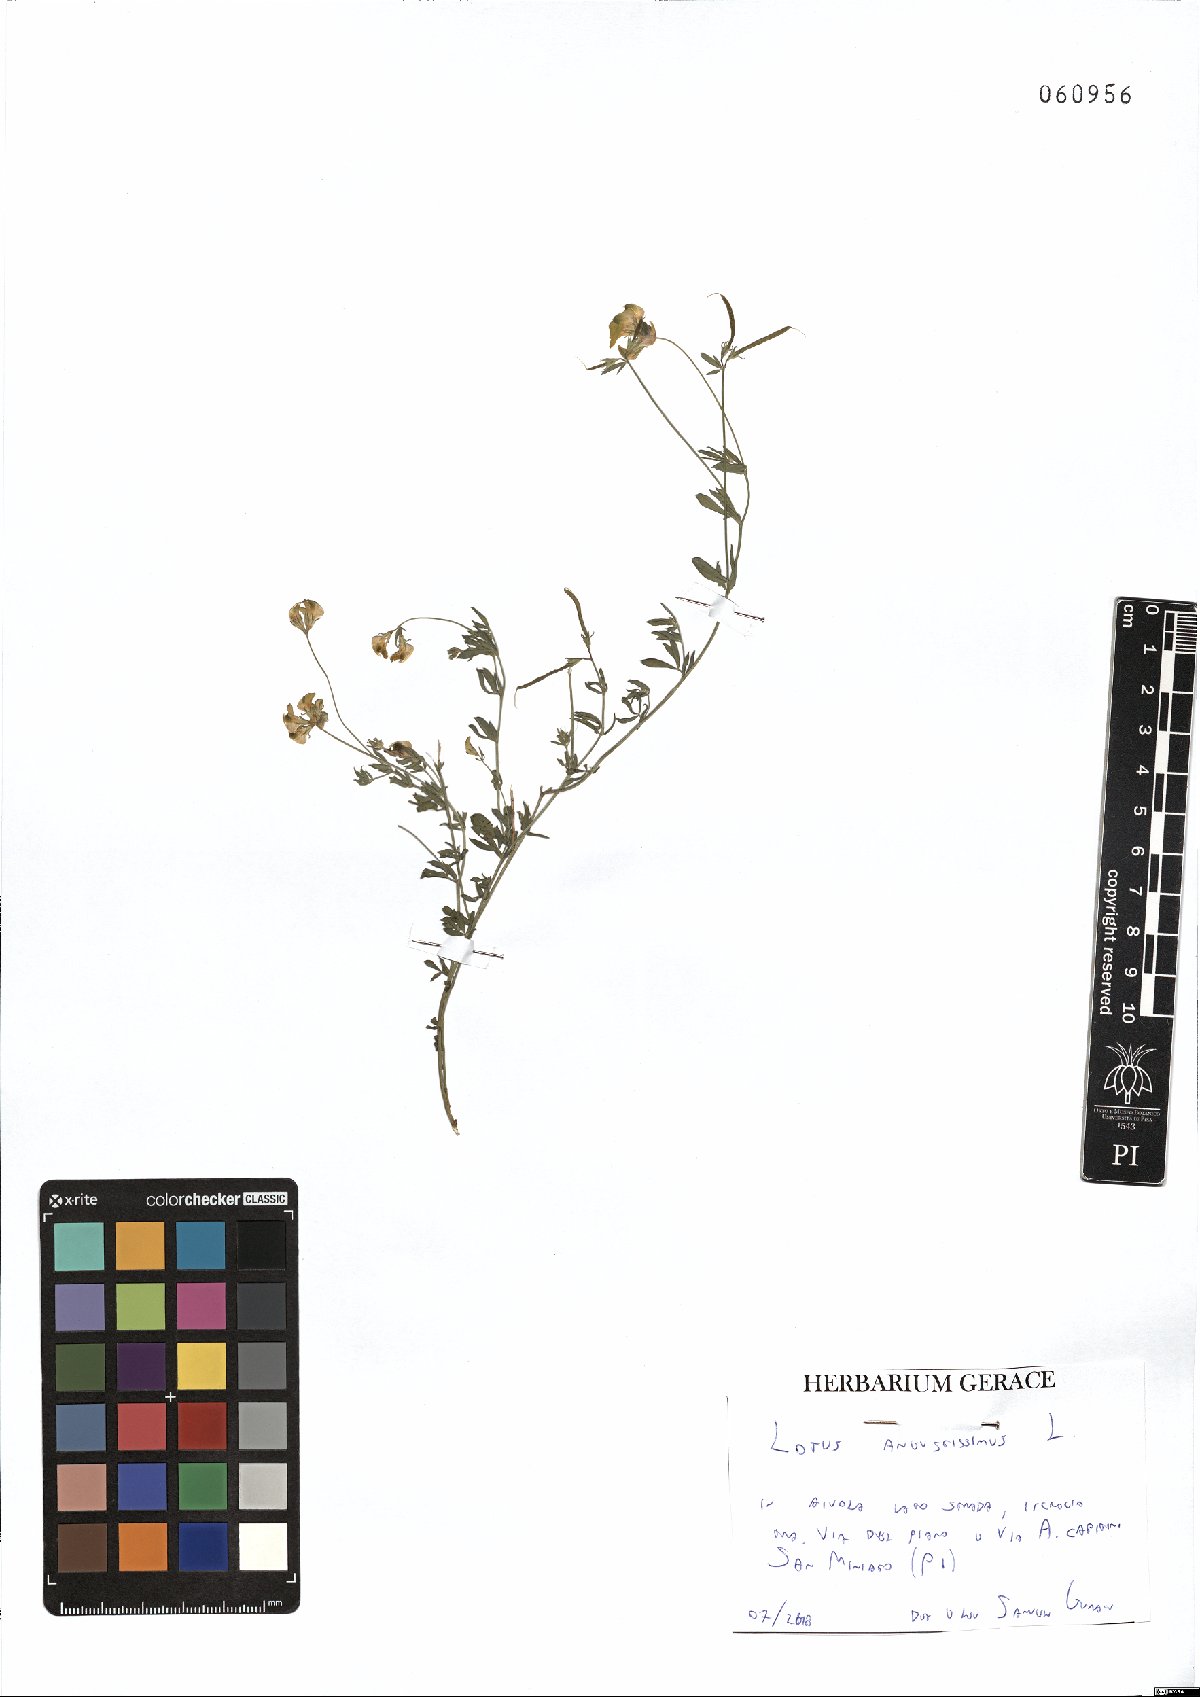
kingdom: Plantae
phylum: Tracheophyta
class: Magnoliopsida
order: Fabales
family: Fabaceae
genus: Lotus
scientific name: Lotus angustissimus
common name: Slender bird's-foot trefoil
